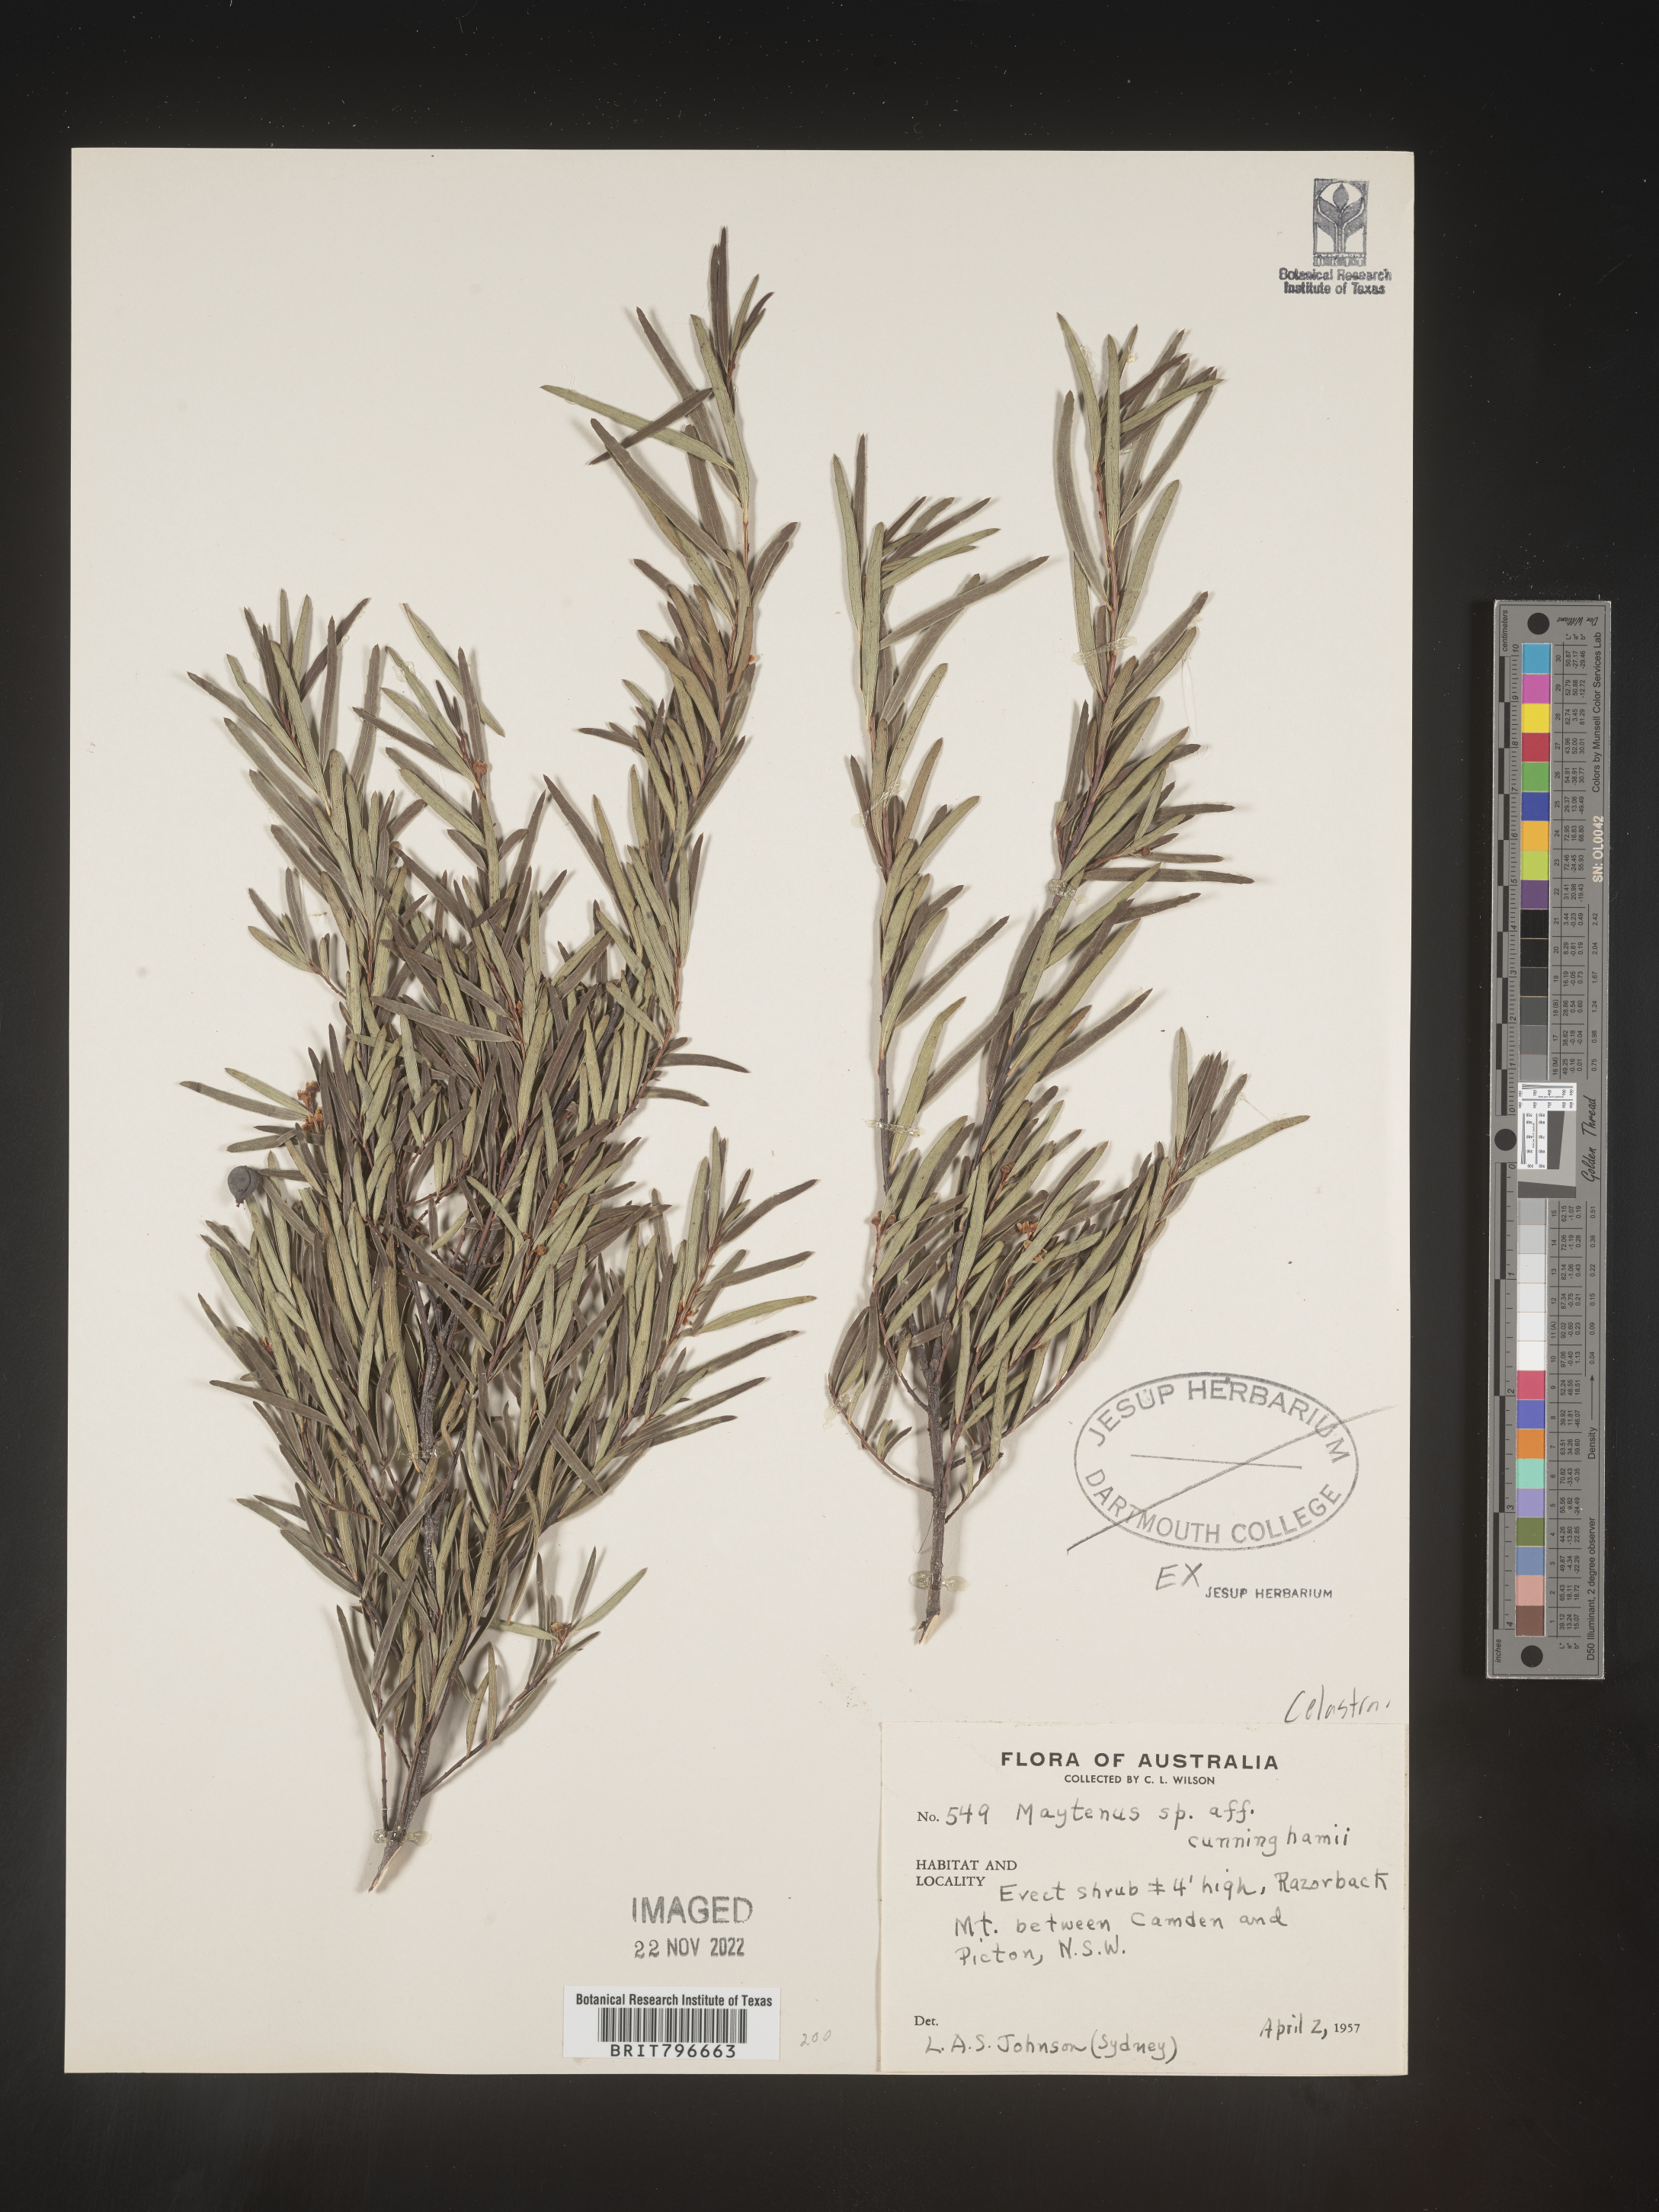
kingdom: Plantae
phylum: Tracheophyta
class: Magnoliopsida
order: Celastrales
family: Celastraceae
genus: Maytenus
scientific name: Maytenus
